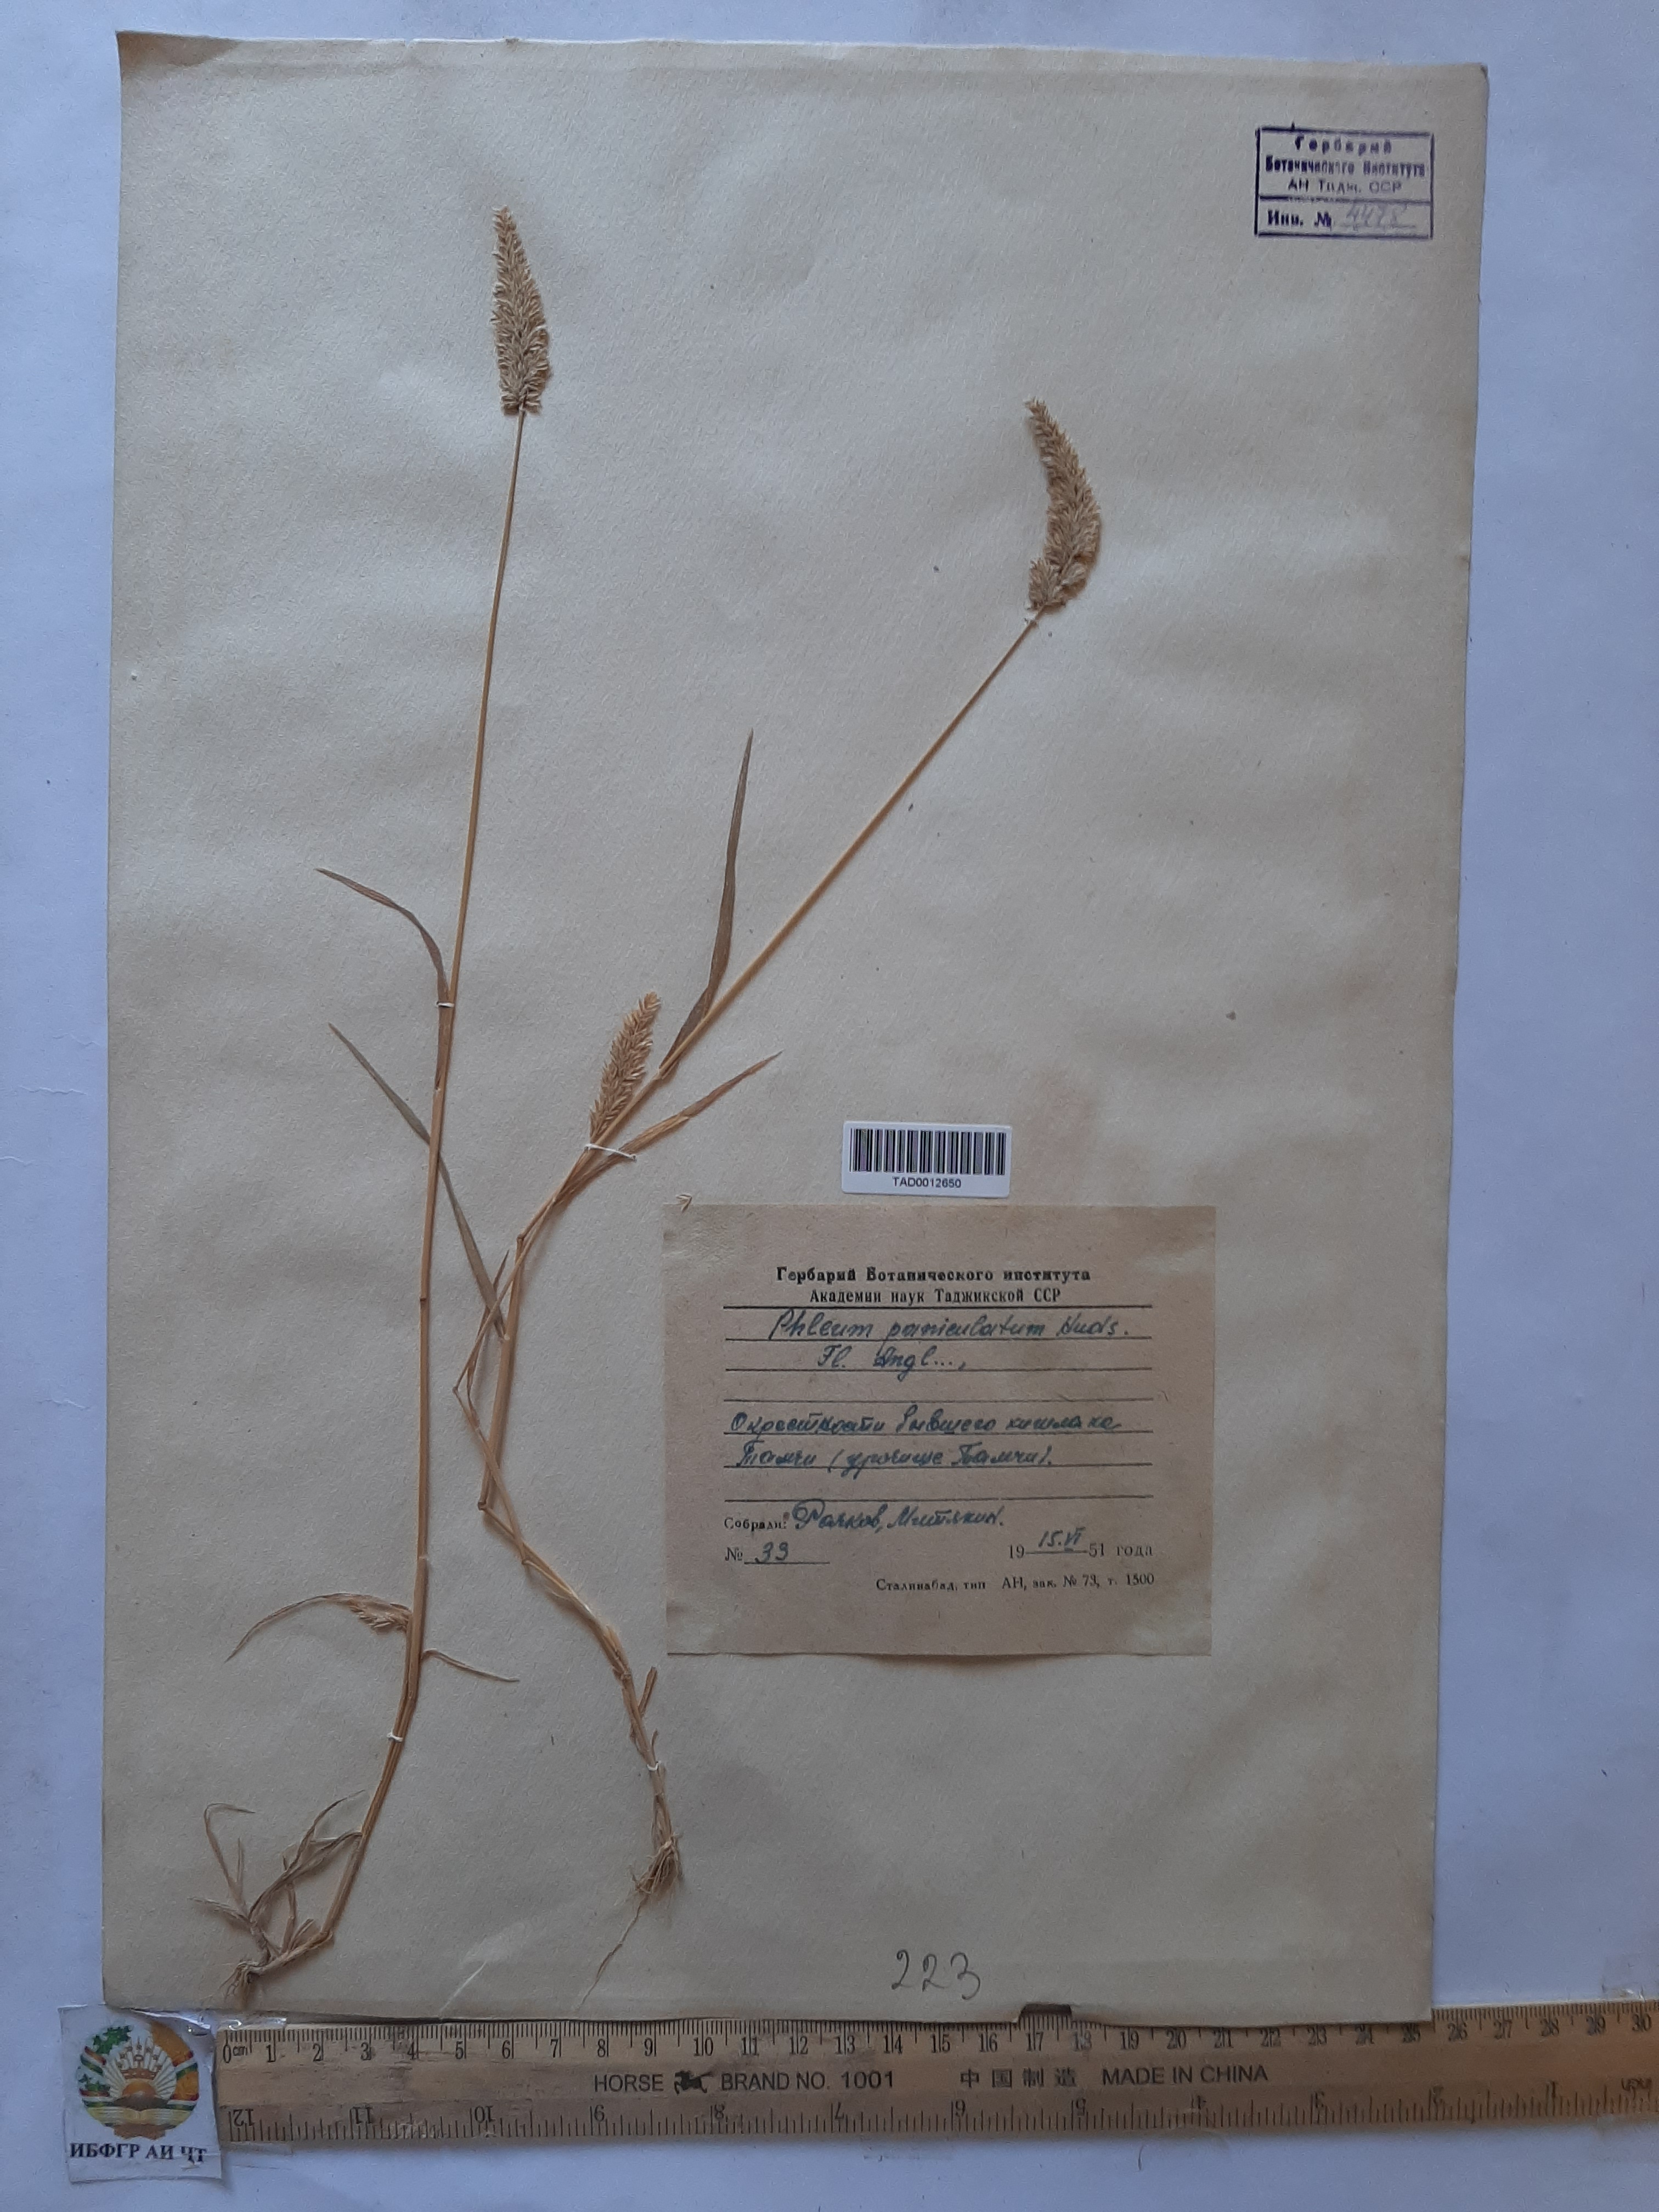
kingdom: Plantae
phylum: Tracheophyta
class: Liliopsida
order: Poales
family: Poaceae
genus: Phleum
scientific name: Phleum paniculatum
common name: British timothy
